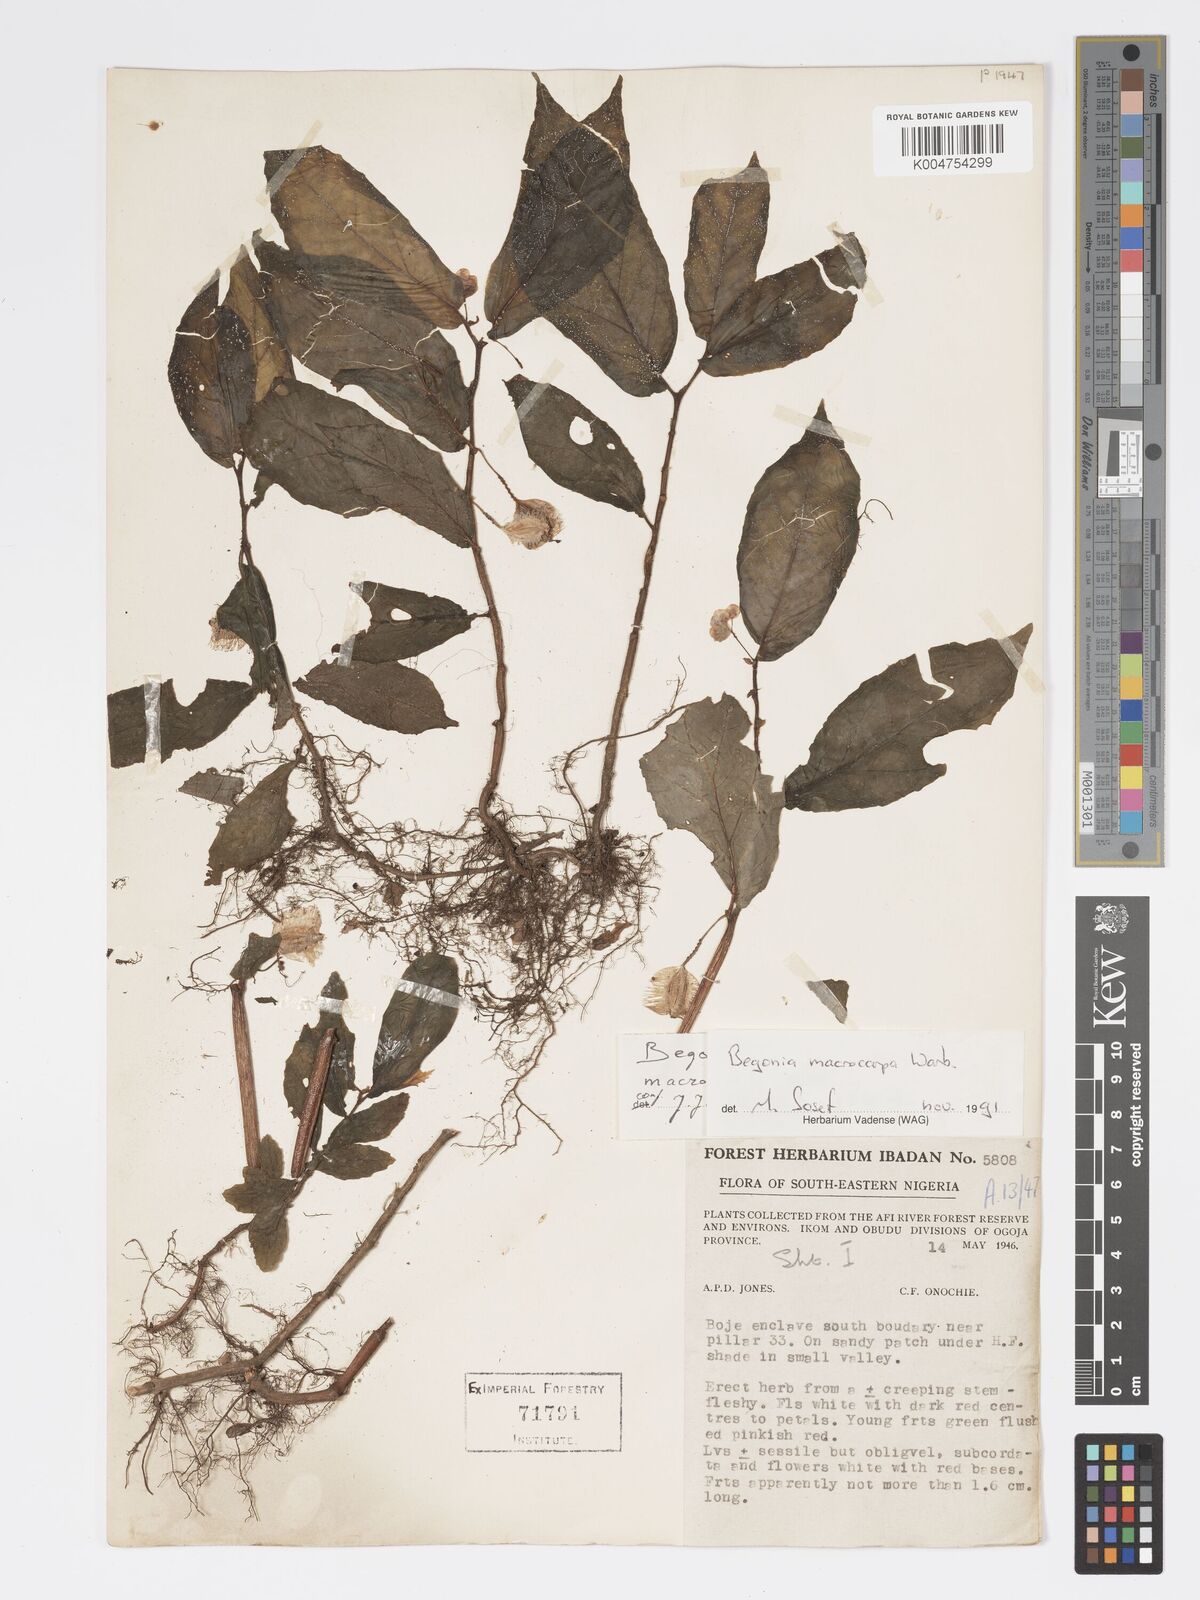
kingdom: Plantae
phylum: Tracheophyta
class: Magnoliopsida
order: Cucurbitales
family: Begoniaceae
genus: Begonia
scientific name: Begonia macrocarpa
